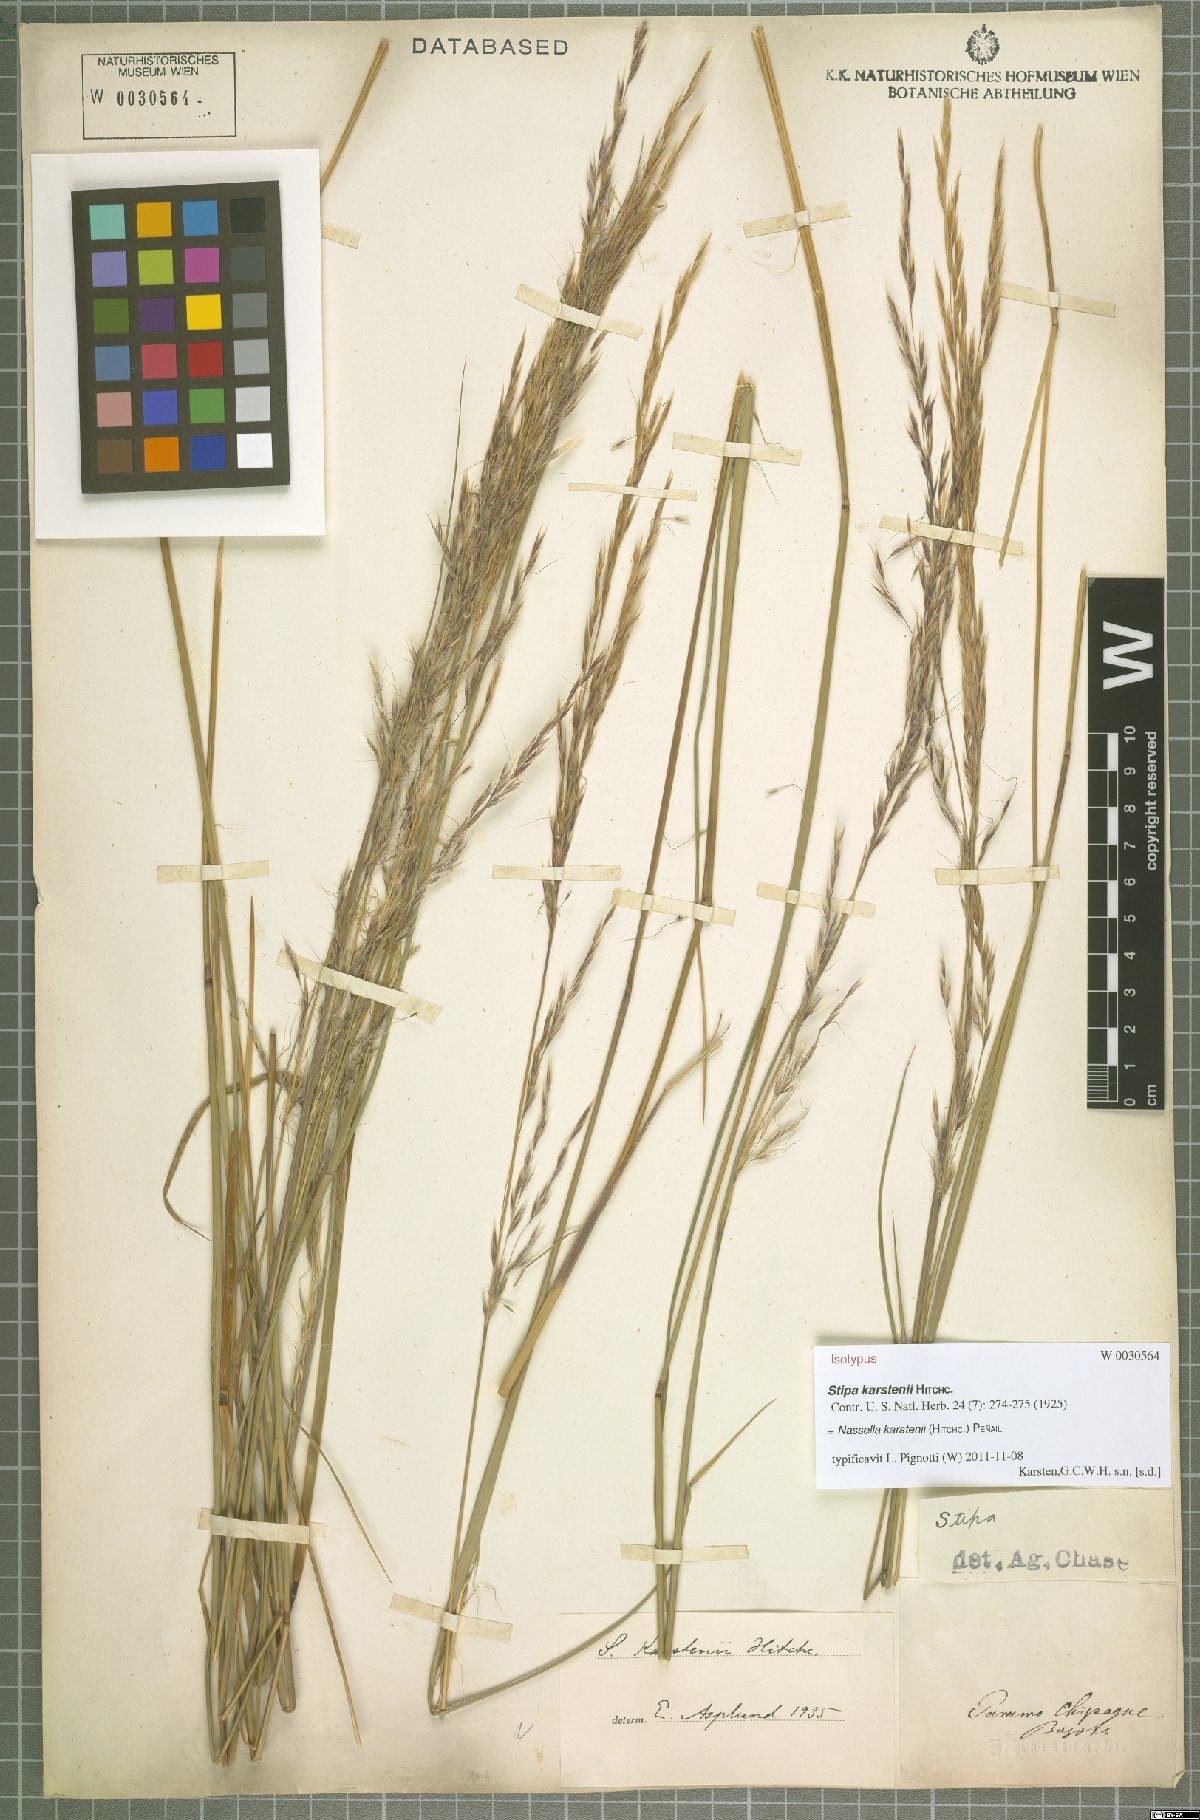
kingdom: Plantae
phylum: Tracheophyta
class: Liliopsida
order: Poales
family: Poaceae
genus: Nassella
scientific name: Nassella karstenii
